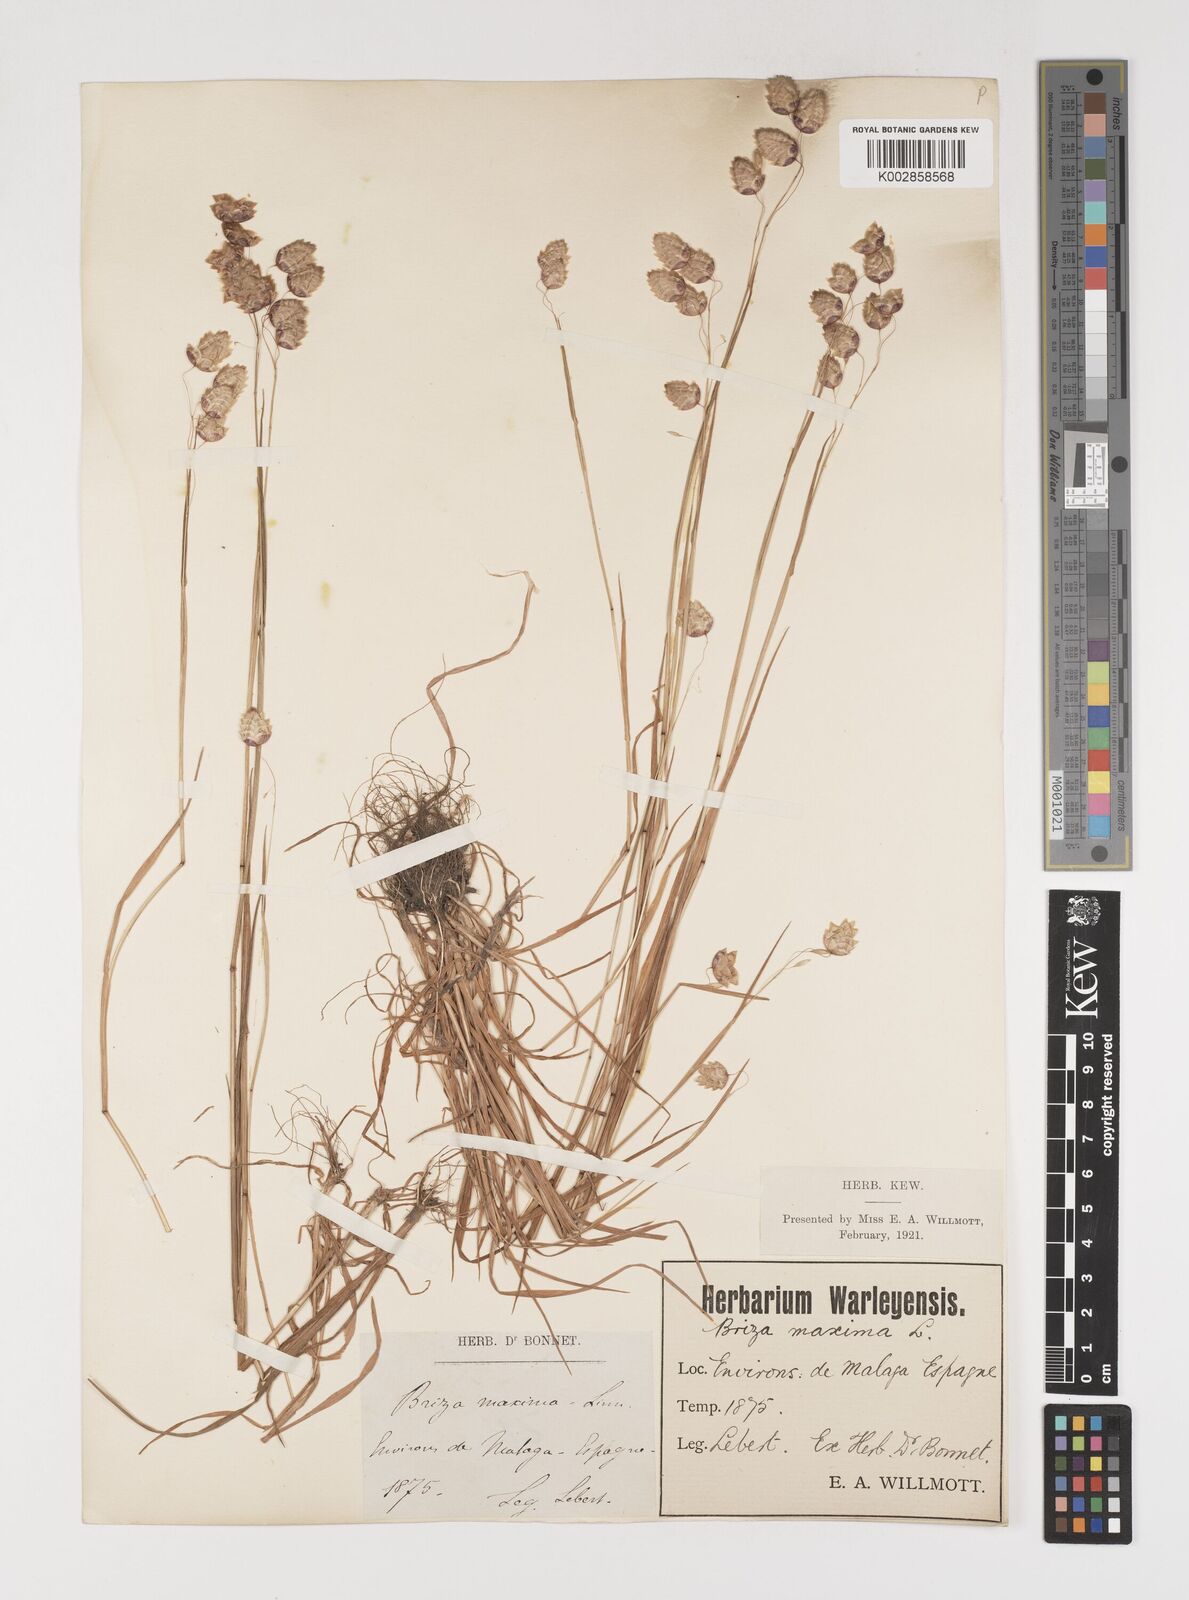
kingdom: Plantae
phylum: Tracheophyta
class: Liliopsida
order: Poales
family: Poaceae
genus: Briza
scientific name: Briza maxima
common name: Big quakinggrass
